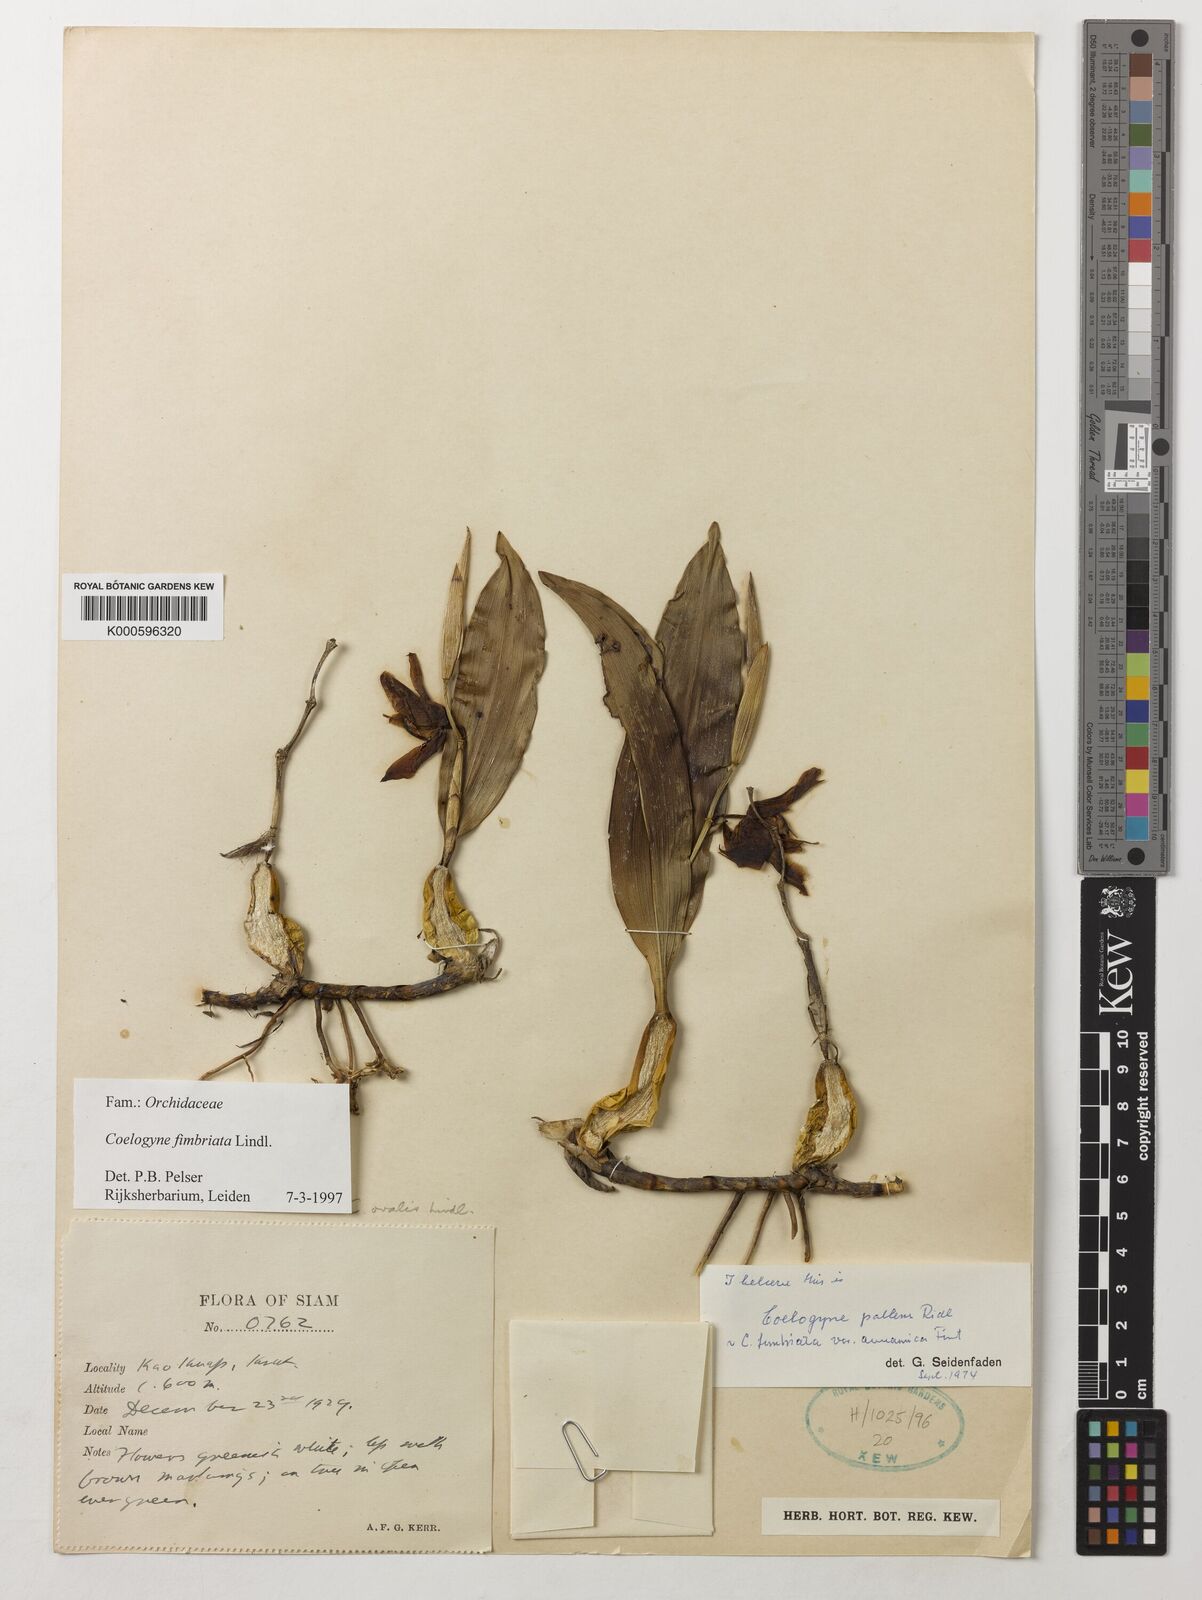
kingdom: Plantae
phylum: Tracheophyta
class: Liliopsida
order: Asparagales
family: Orchidaceae
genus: Coelogyne
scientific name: Coelogyne fimbriata
